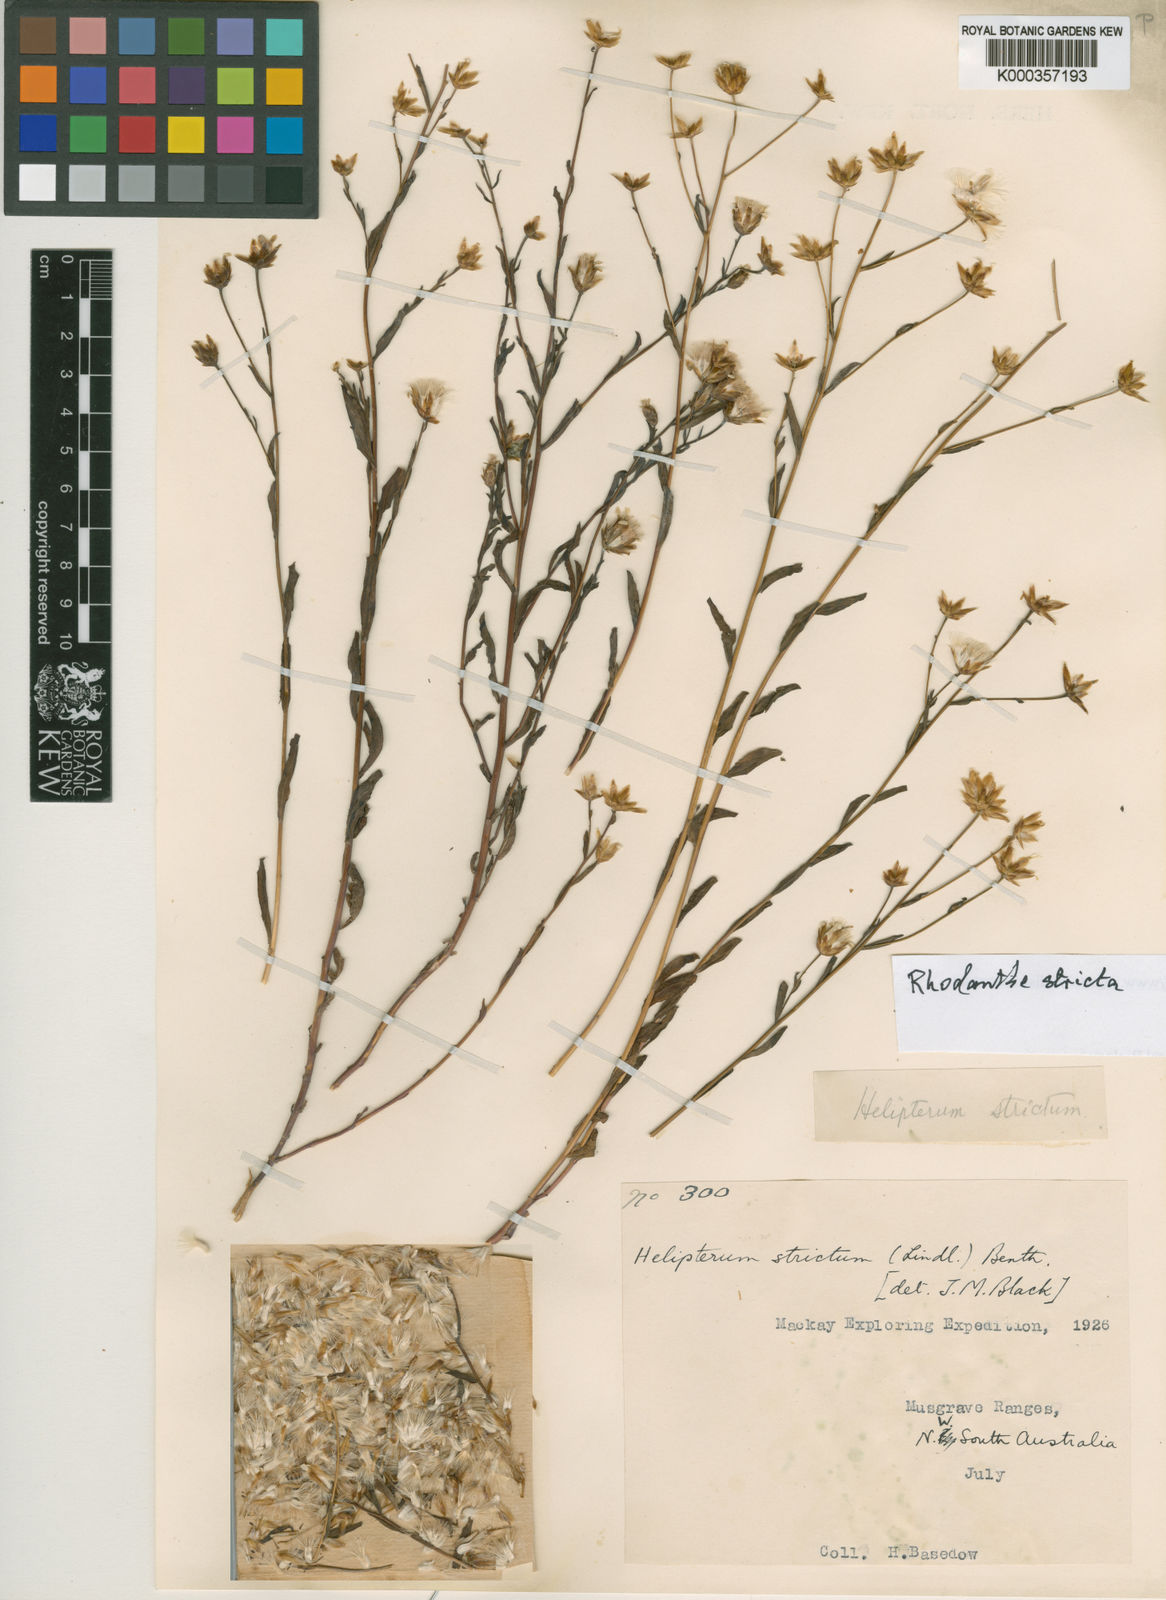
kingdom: Plantae
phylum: Tracheophyta
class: Magnoliopsida
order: Asterales
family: Asteraceae
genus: Rhodanthe
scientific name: Rhodanthe stricta
